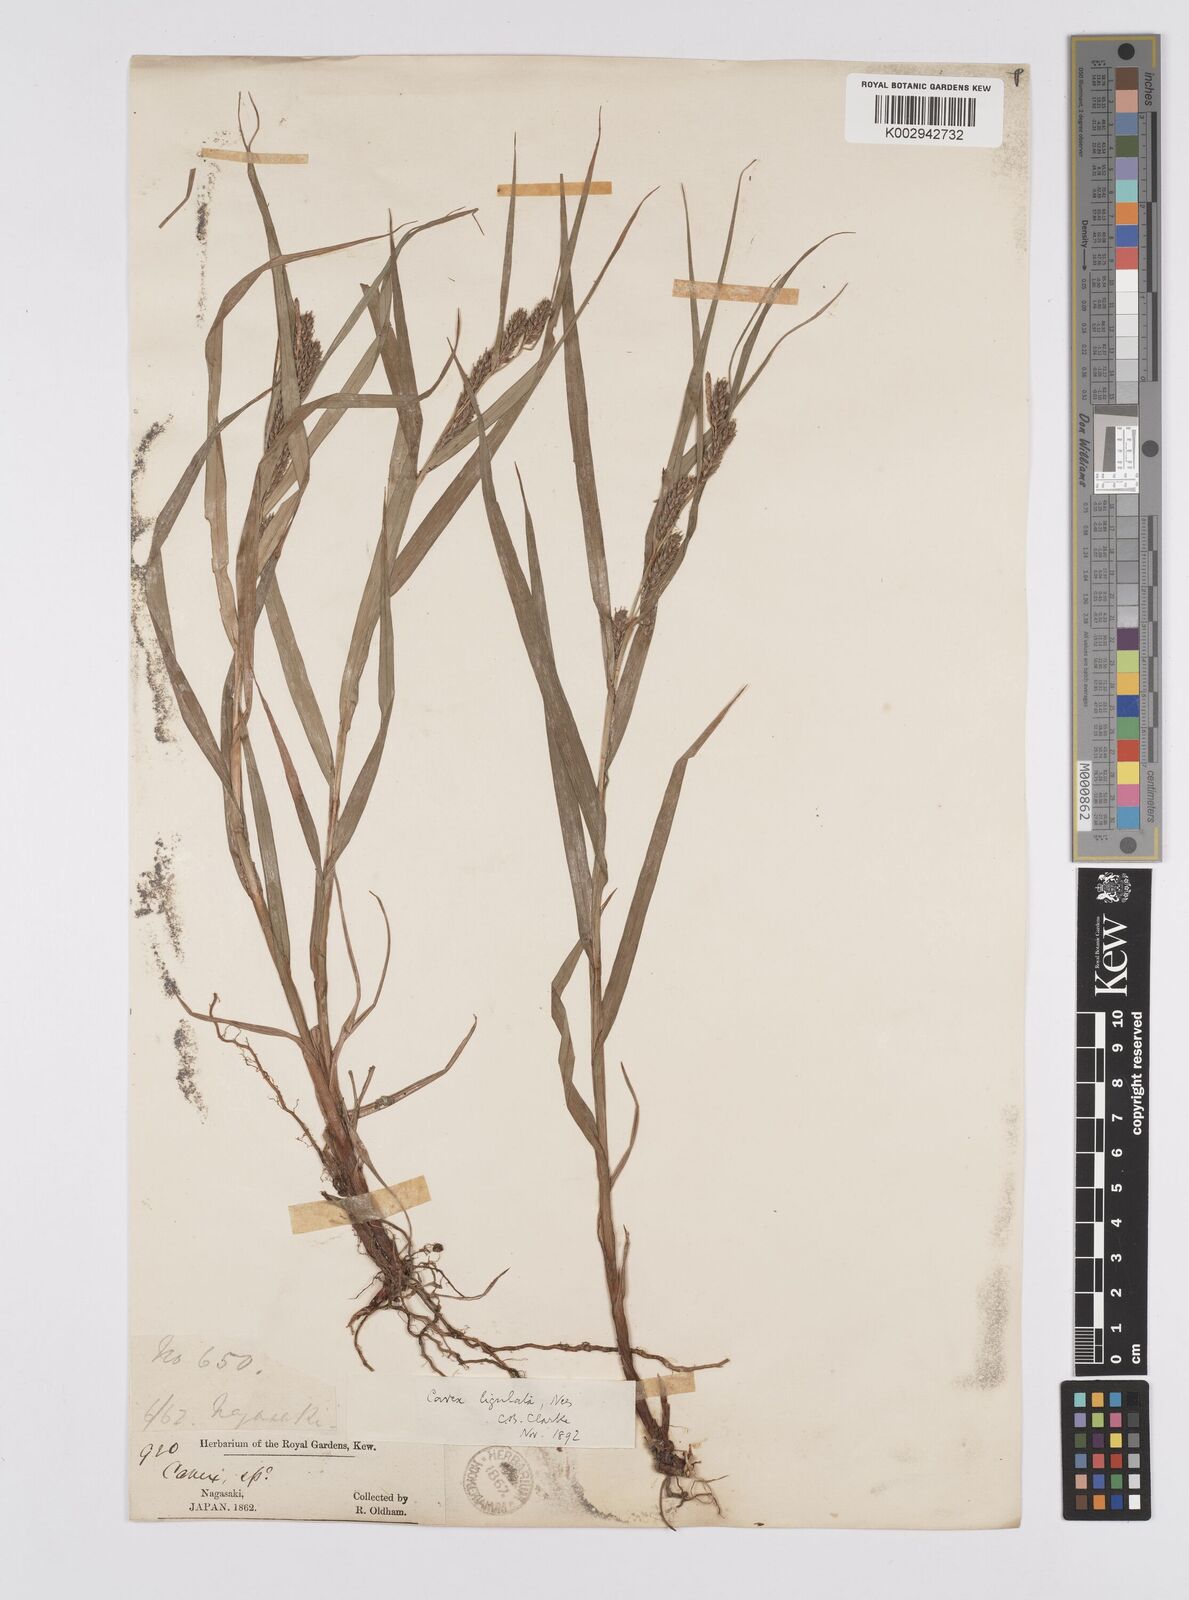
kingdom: Plantae
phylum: Tracheophyta
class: Liliopsida
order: Poales
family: Cyperaceae
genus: Carex
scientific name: Carex ligulata
